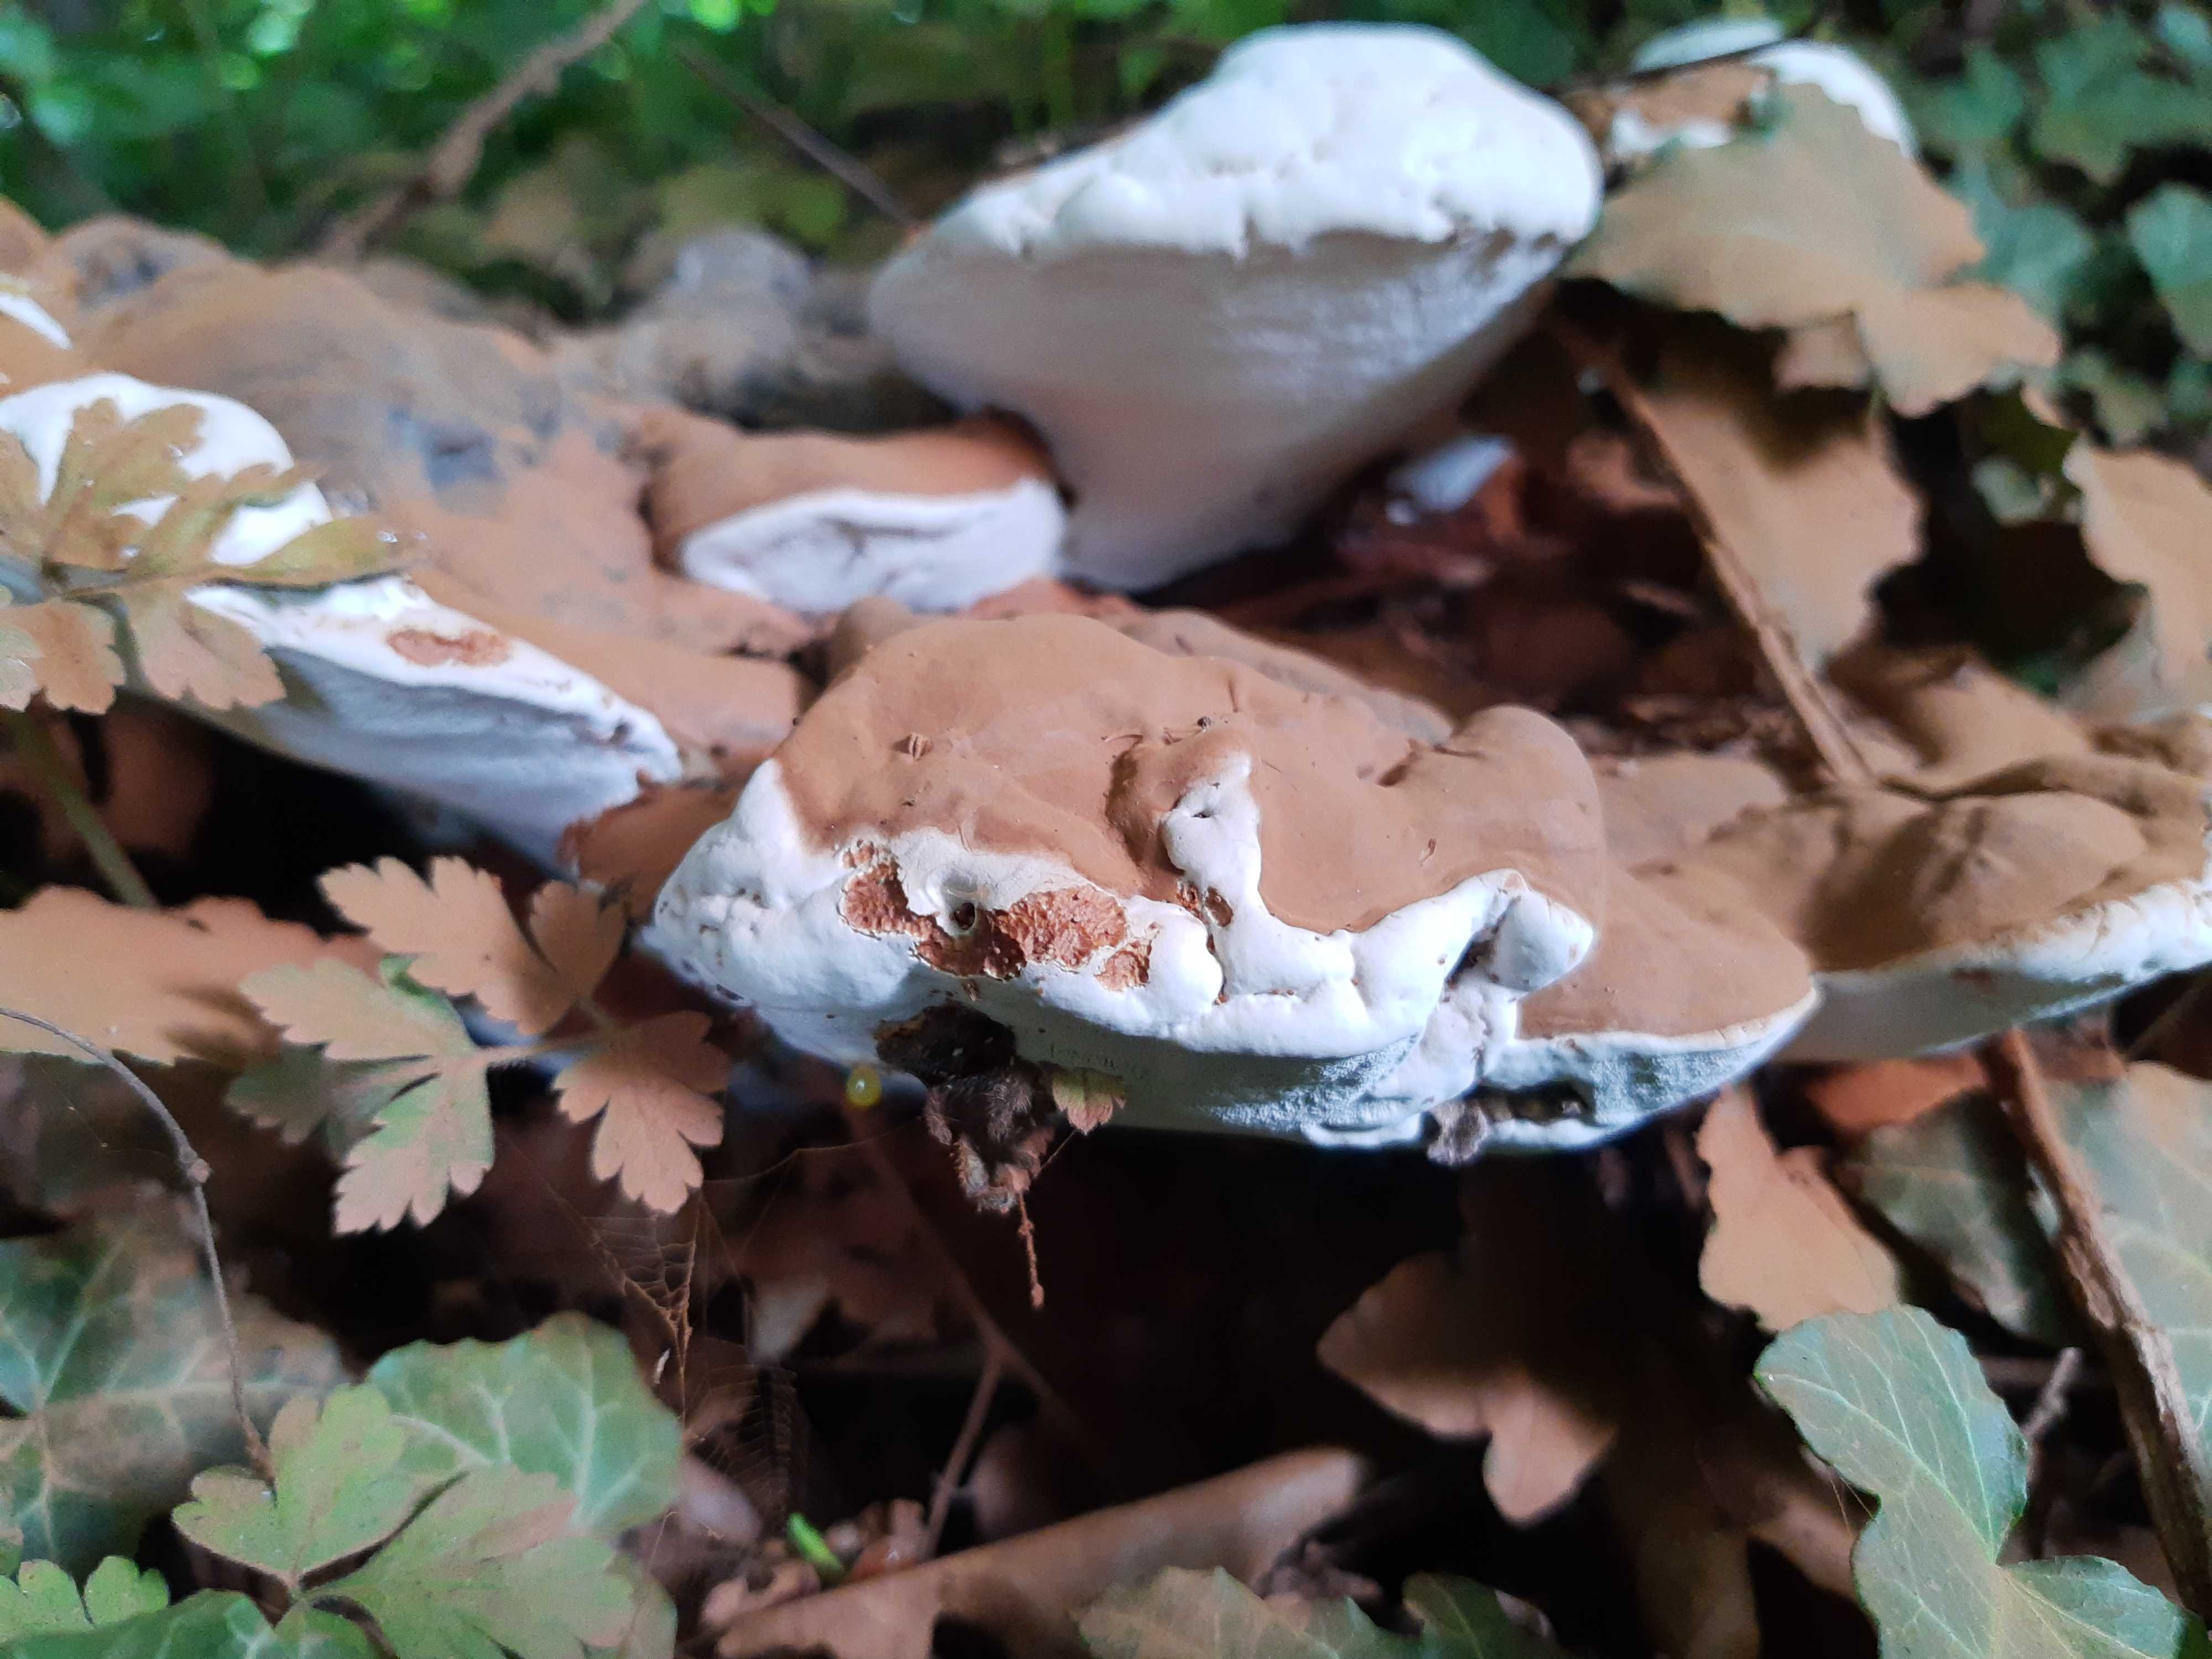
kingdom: Fungi
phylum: Basidiomycota
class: Agaricomycetes
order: Polyporales
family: Polyporaceae
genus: Ganoderma
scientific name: Ganoderma pfeifferi
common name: kobberrød lakporesvamp
